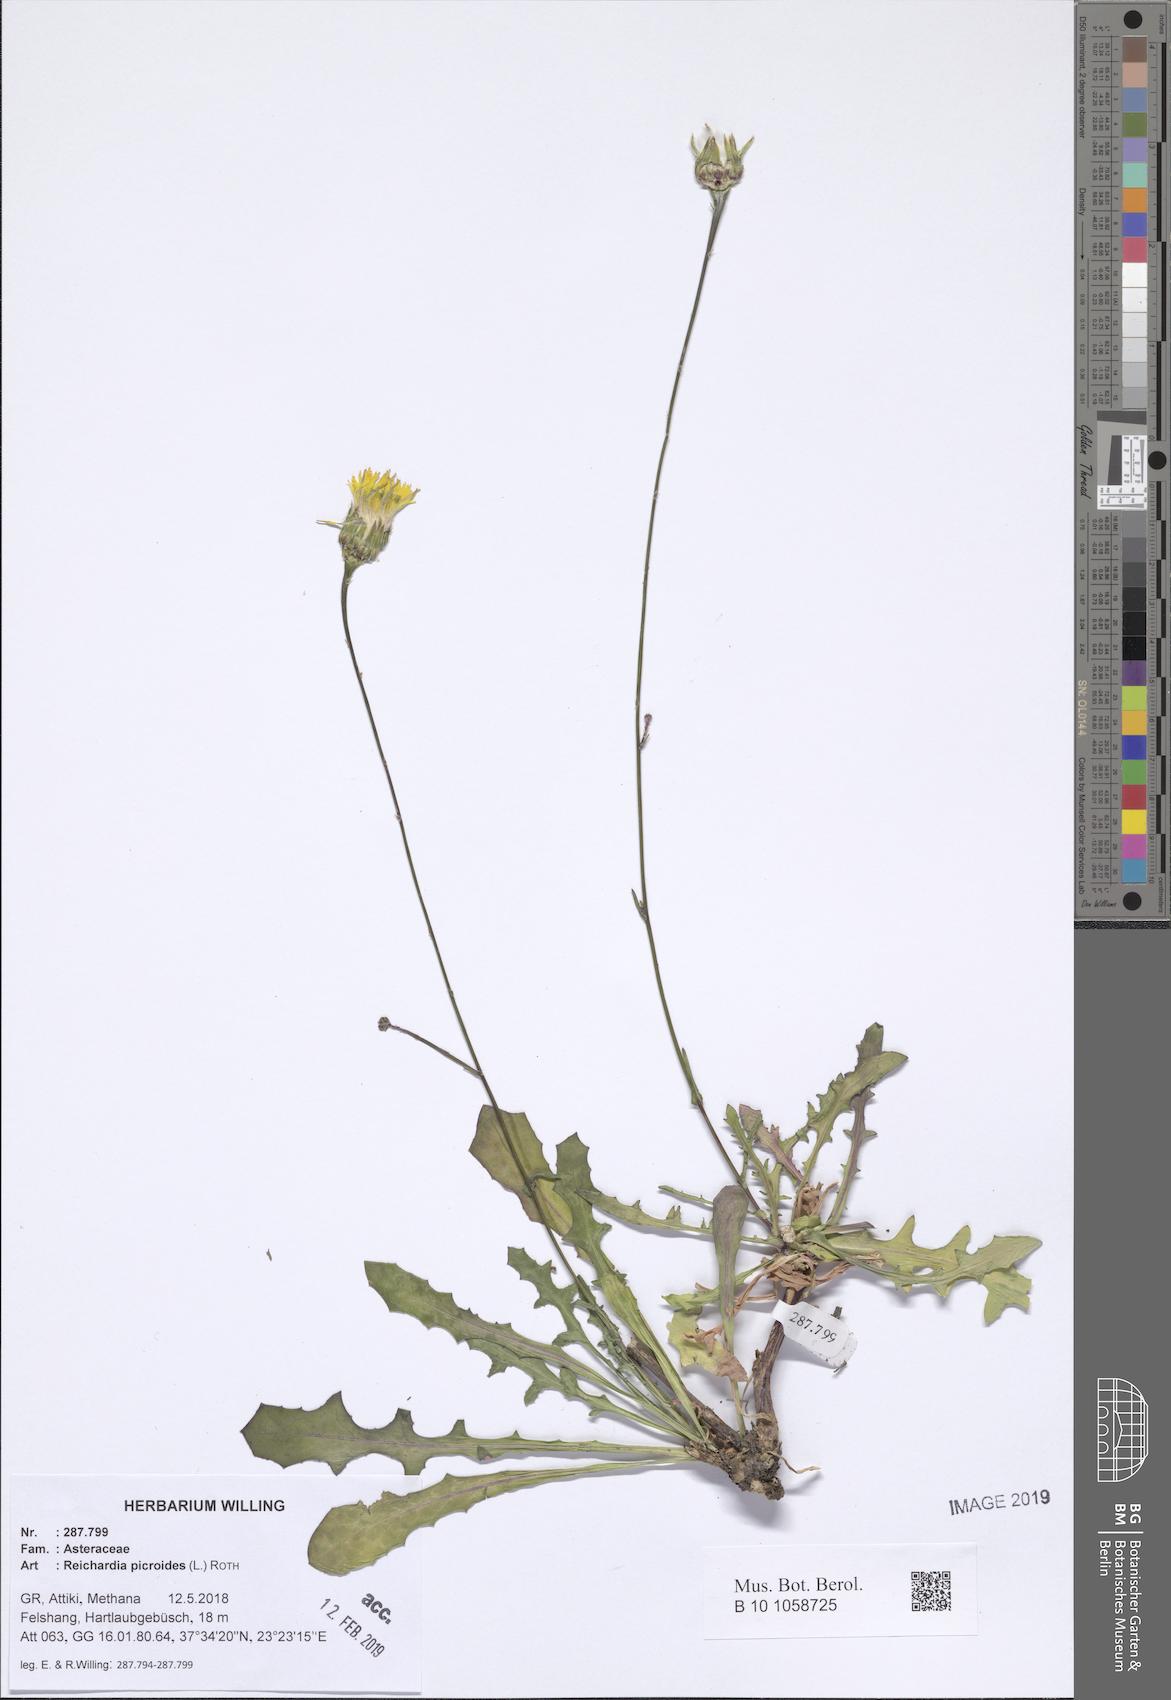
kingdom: Plantae
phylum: Tracheophyta
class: Magnoliopsida
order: Asterales
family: Asteraceae
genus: Reichardia
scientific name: Reichardia picroides
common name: Common brighteyes
